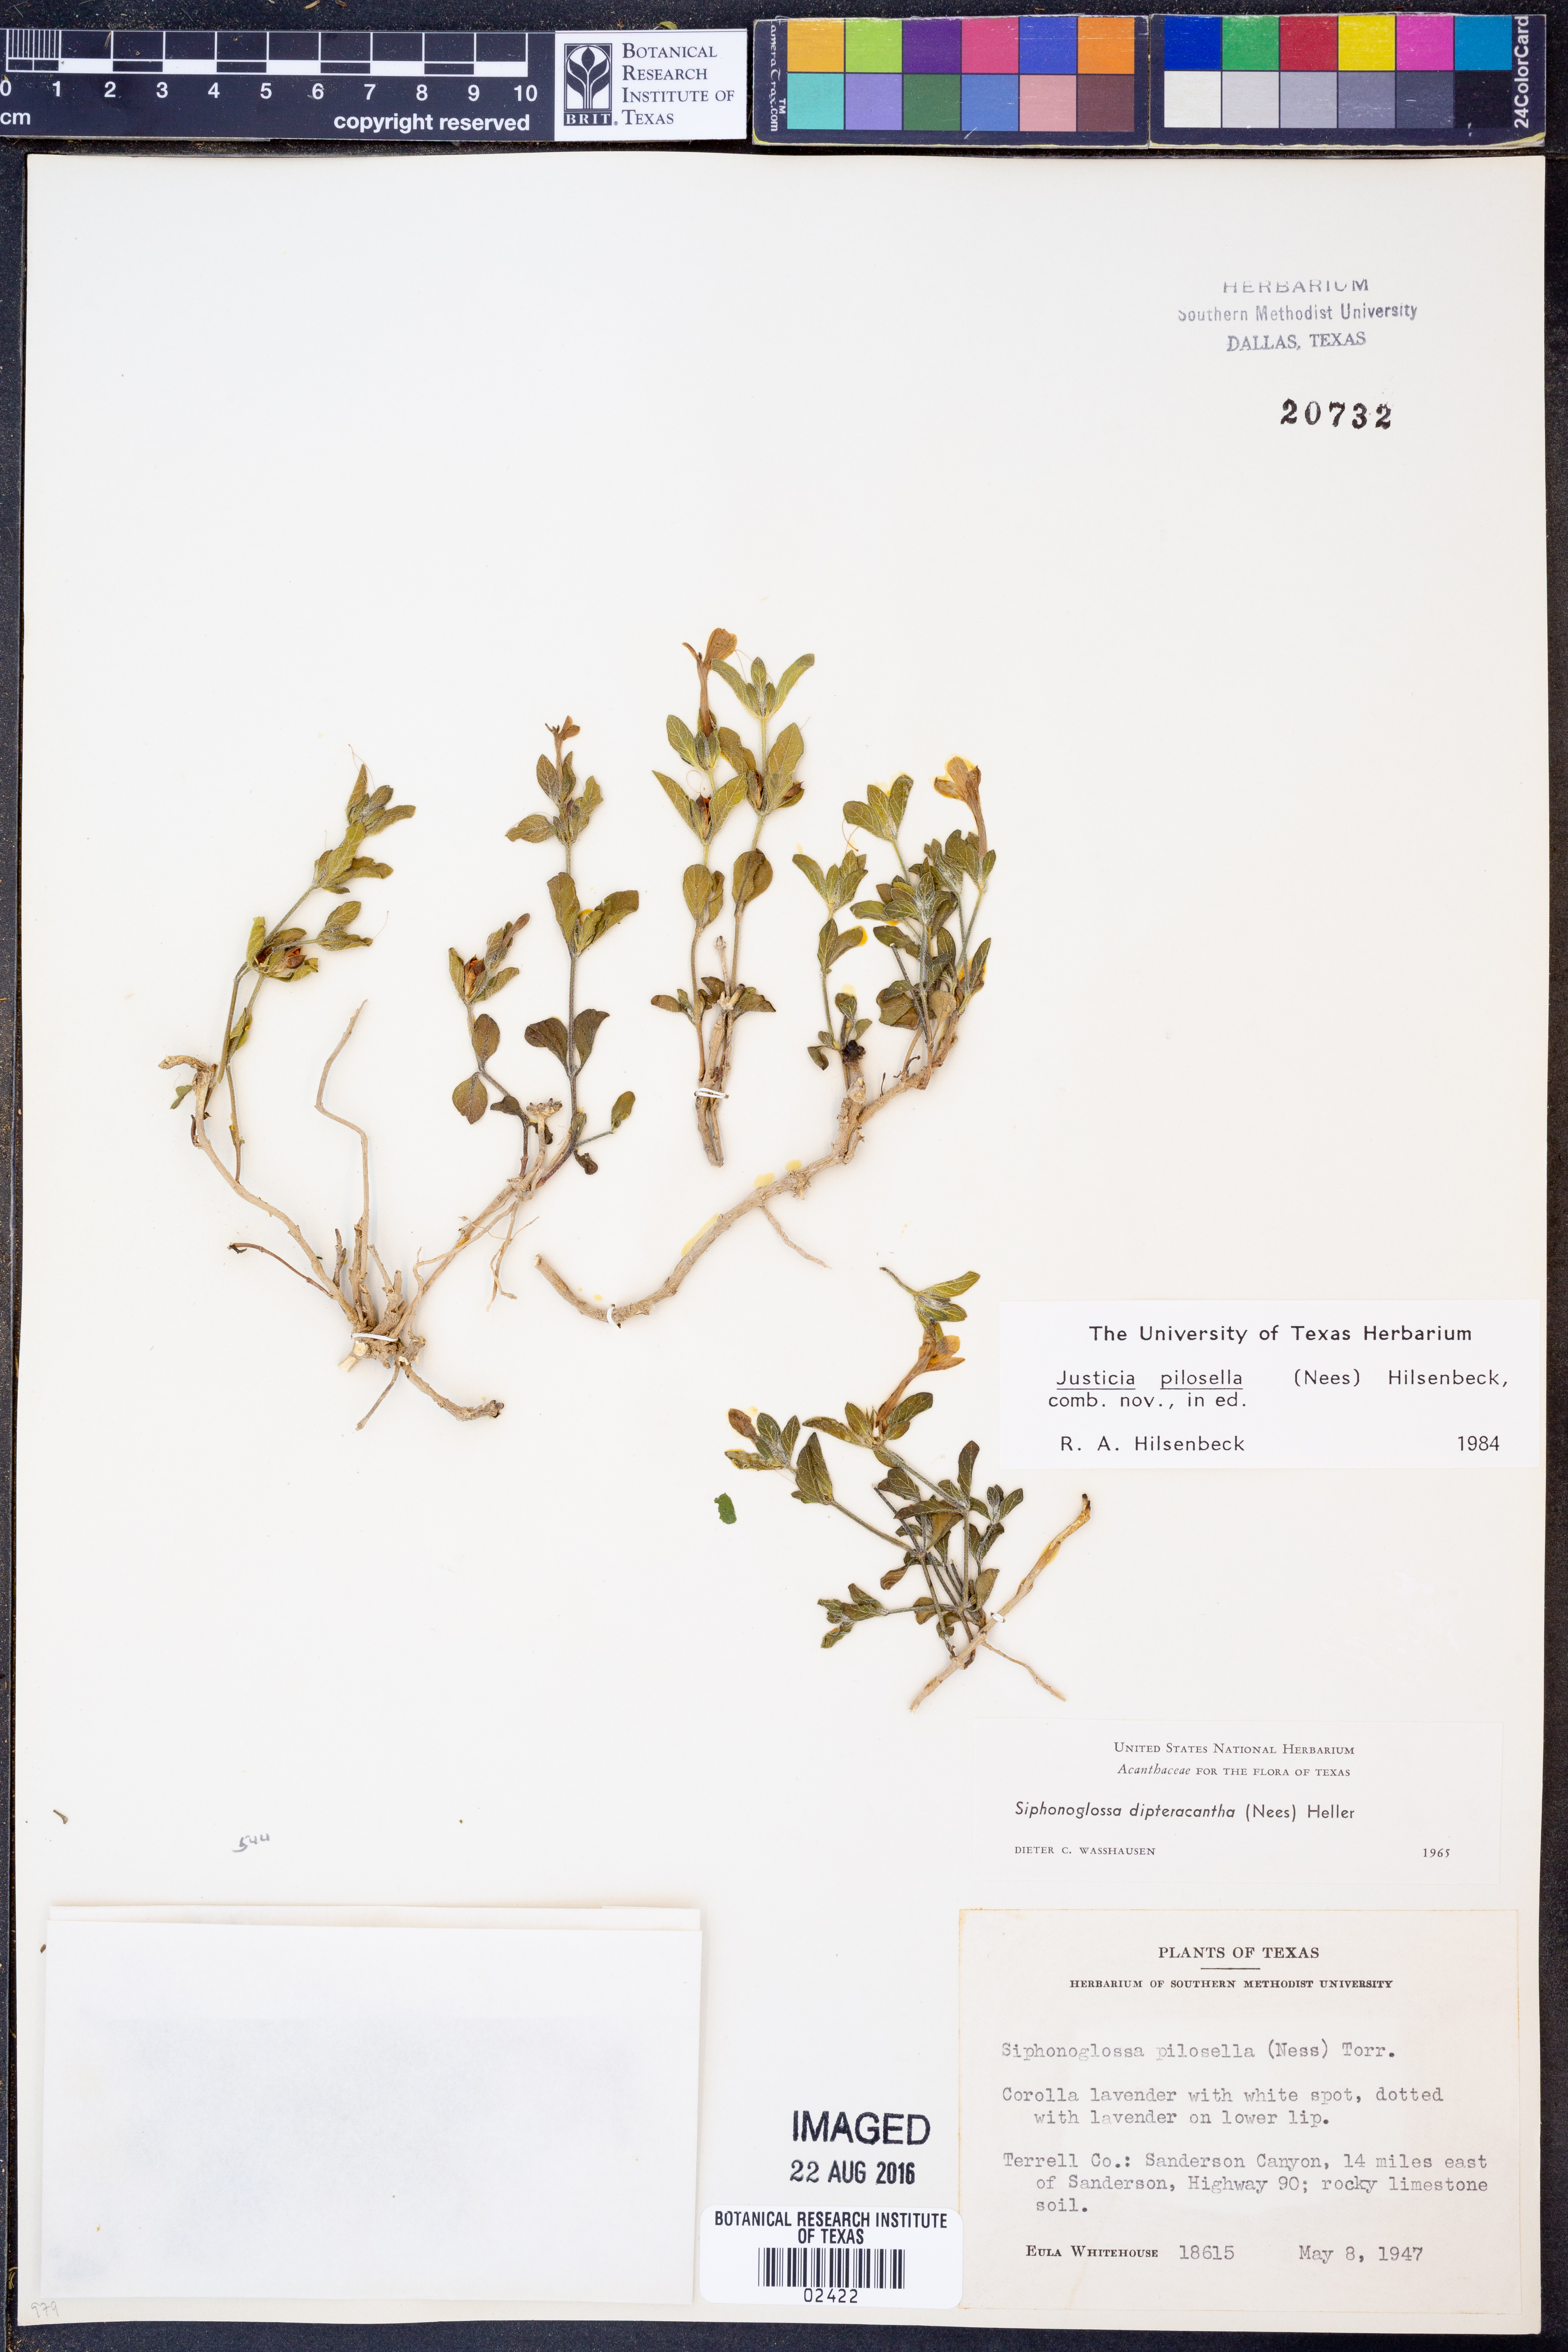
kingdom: Plantae
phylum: Tracheophyta
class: Magnoliopsida
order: Lamiales
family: Acanthaceae
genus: Justicia
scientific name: Justicia pilosella
